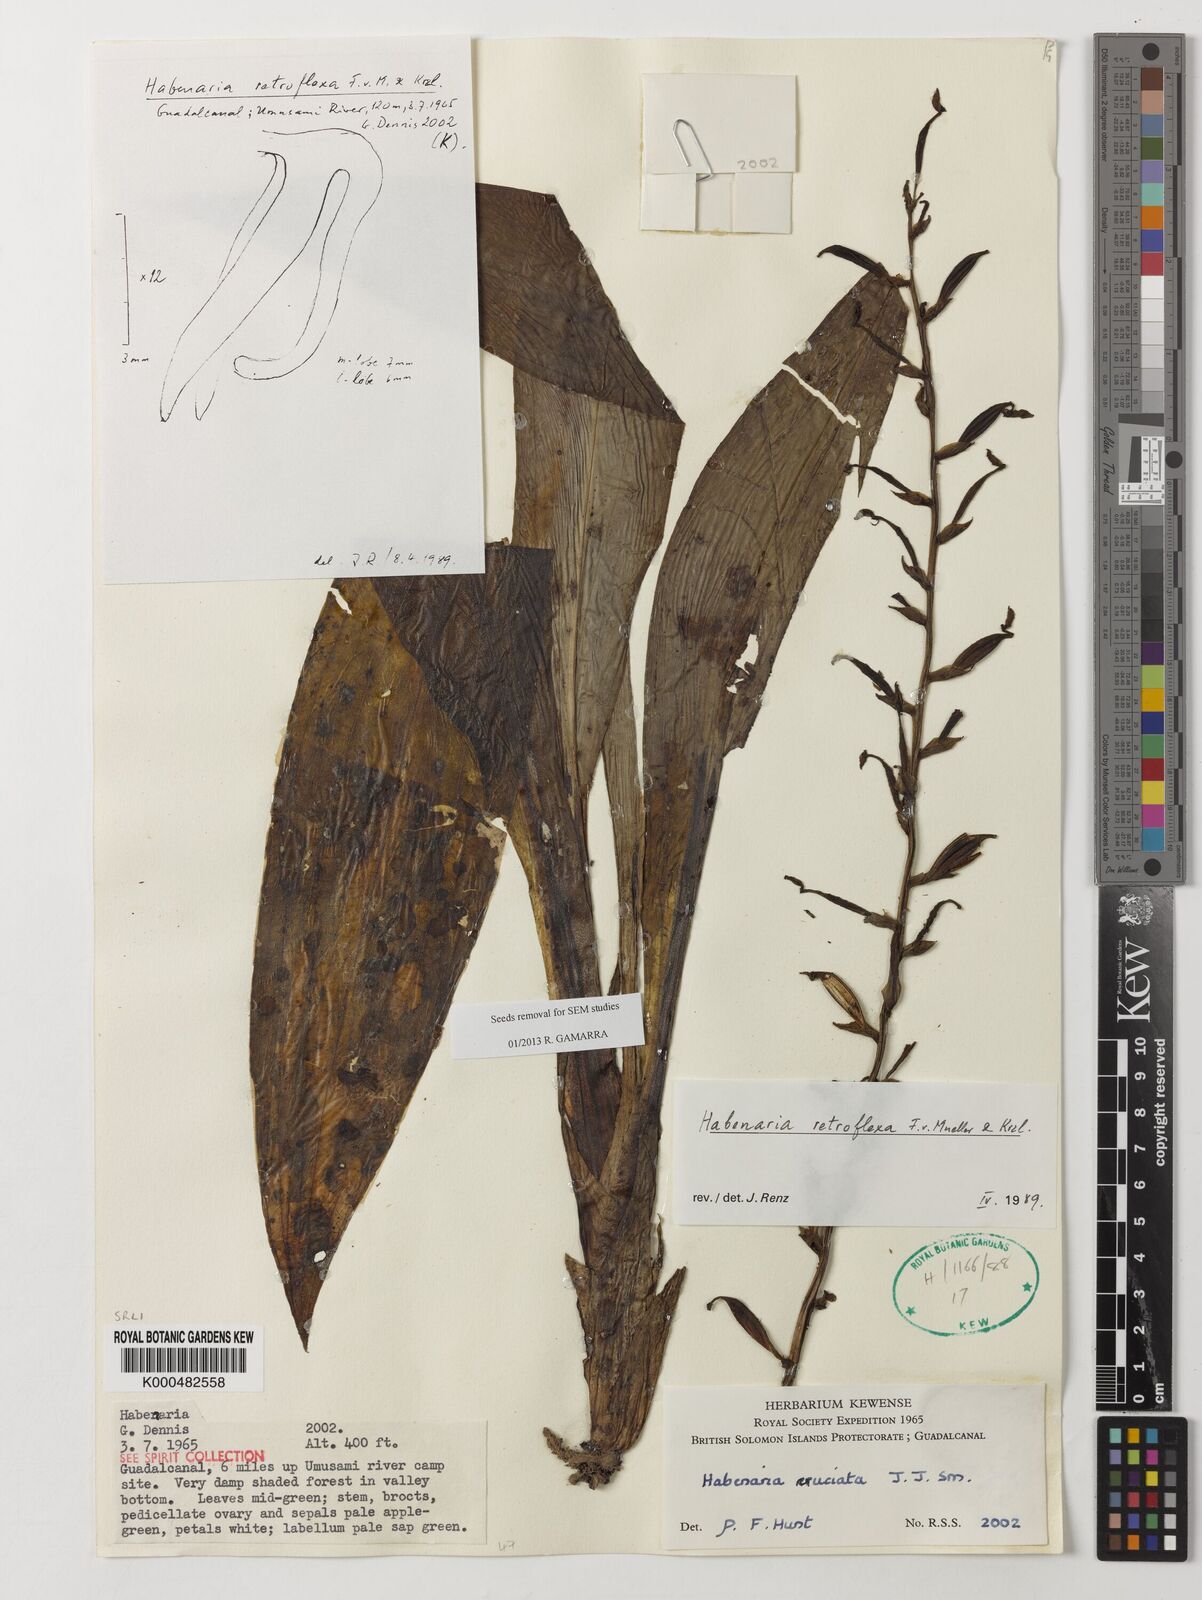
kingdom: Plantae
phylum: Tracheophyta
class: Liliopsida
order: Asparagales
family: Orchidaceae
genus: Habenaria
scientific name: Habenaria retroflexa
